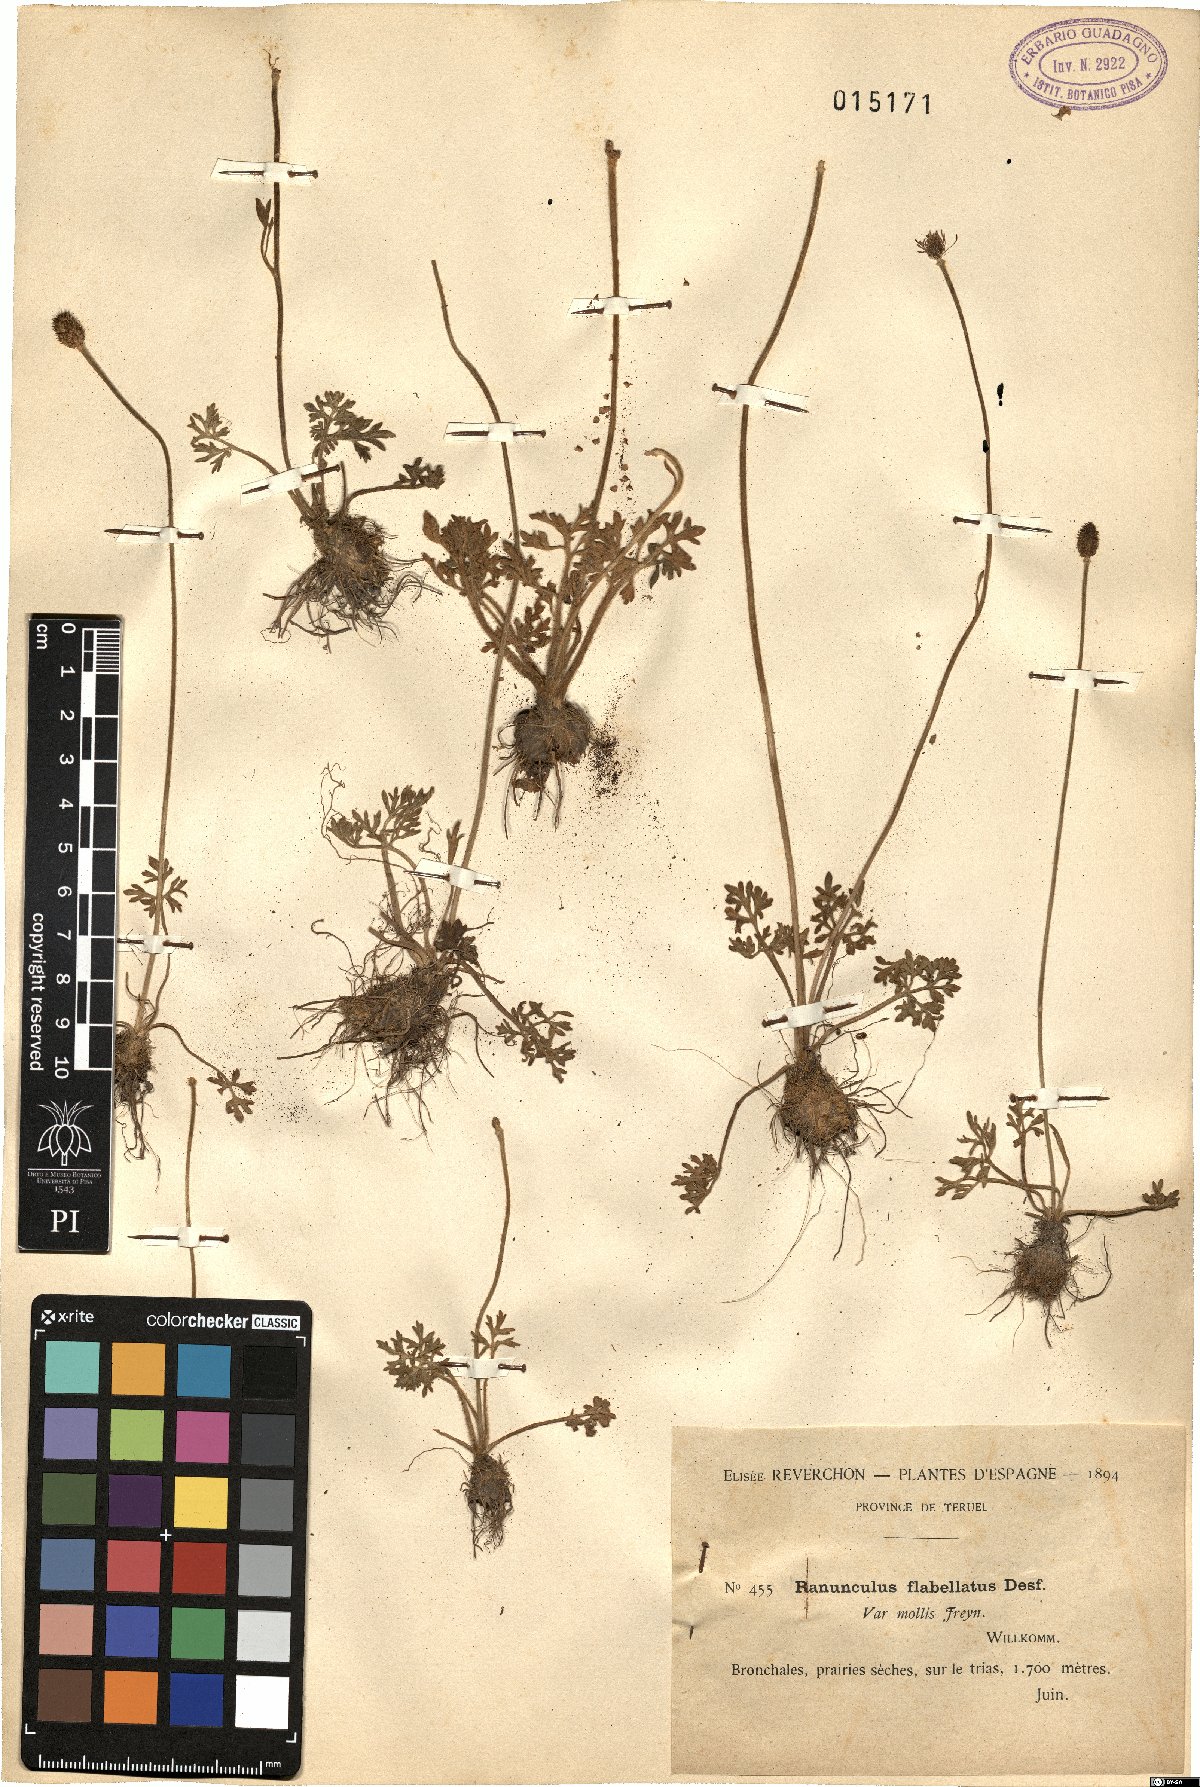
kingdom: Plantae
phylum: Tracheophyta
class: Magnoliopsida
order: Ranunculales
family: Ranunculaceae
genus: Ranunculus
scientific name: Ranunculus paludosus
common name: Jersey buttercup
